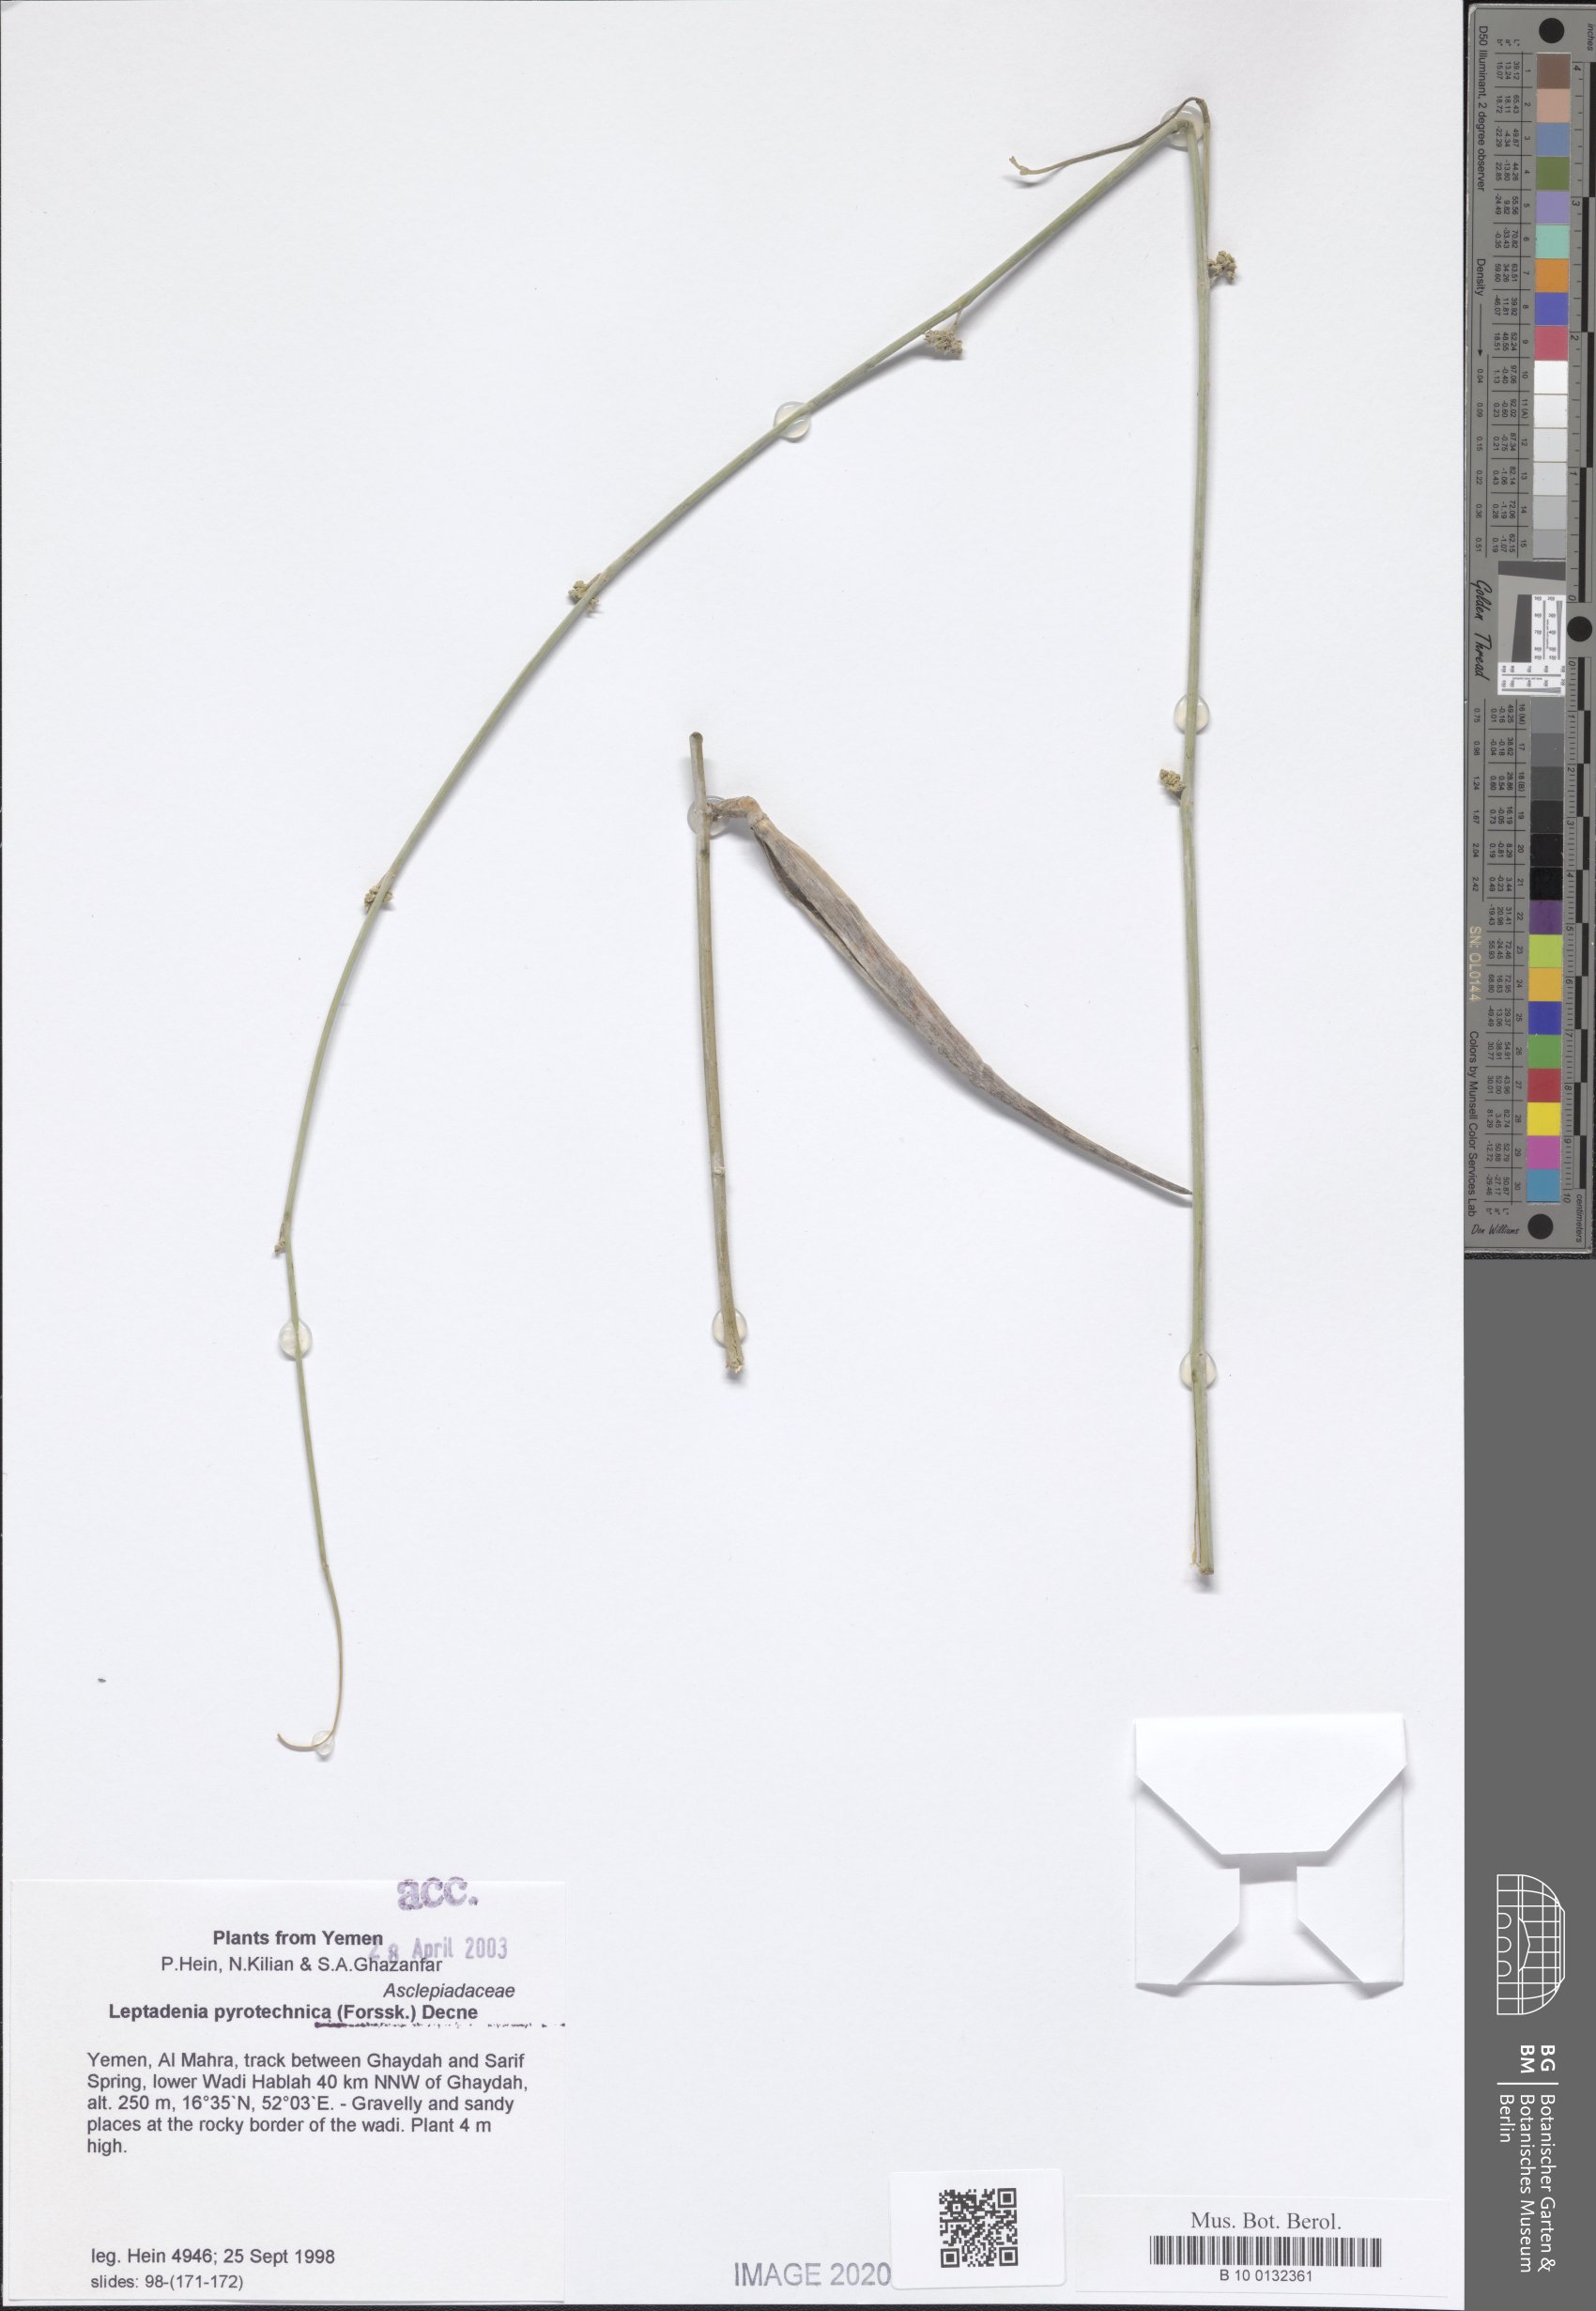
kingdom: Plantae
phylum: Tracheophyta
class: Magnoliopsida
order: Gentianales
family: Apocynaceae
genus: Leptadenia
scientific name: Leptadenia pyrotechnica
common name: Broom brush
